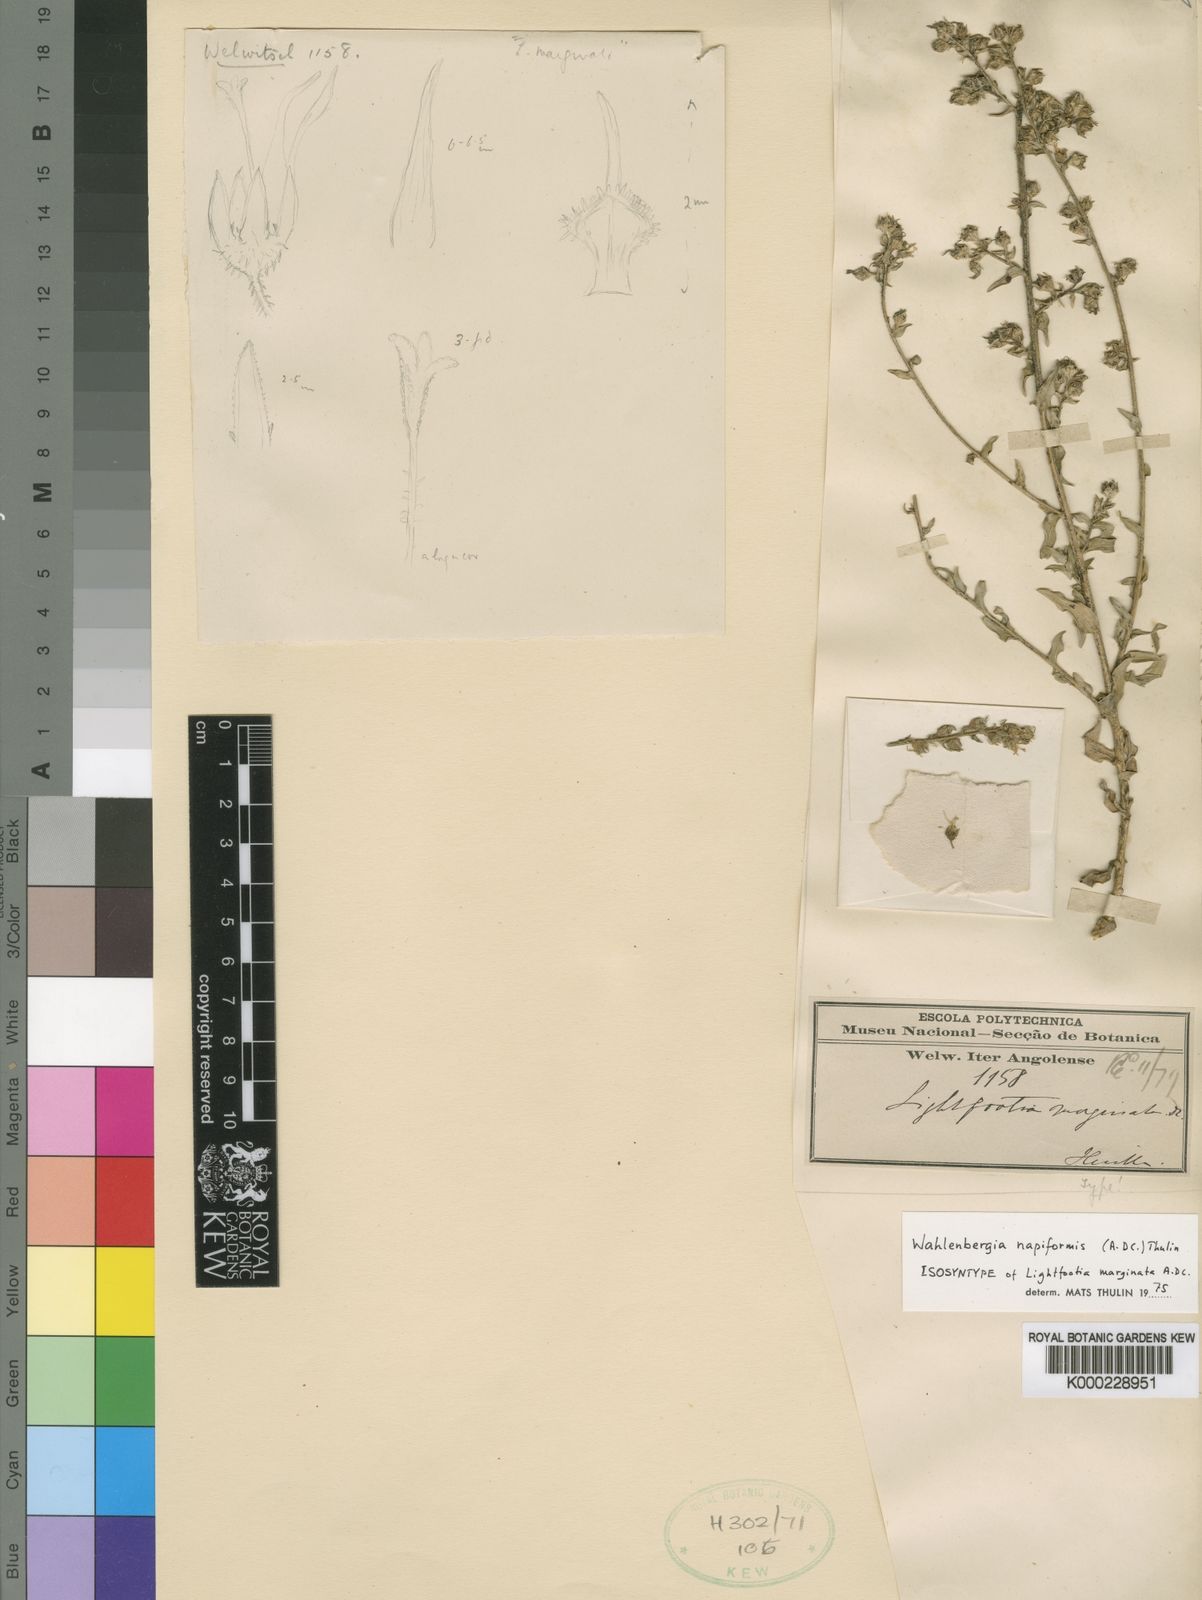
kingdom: Plantae
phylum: Tracheophyta
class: Magnoliopsida
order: Asterales
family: Campanulaceae
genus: Wahlenbergia
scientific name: Wahlenbergia napiformis
